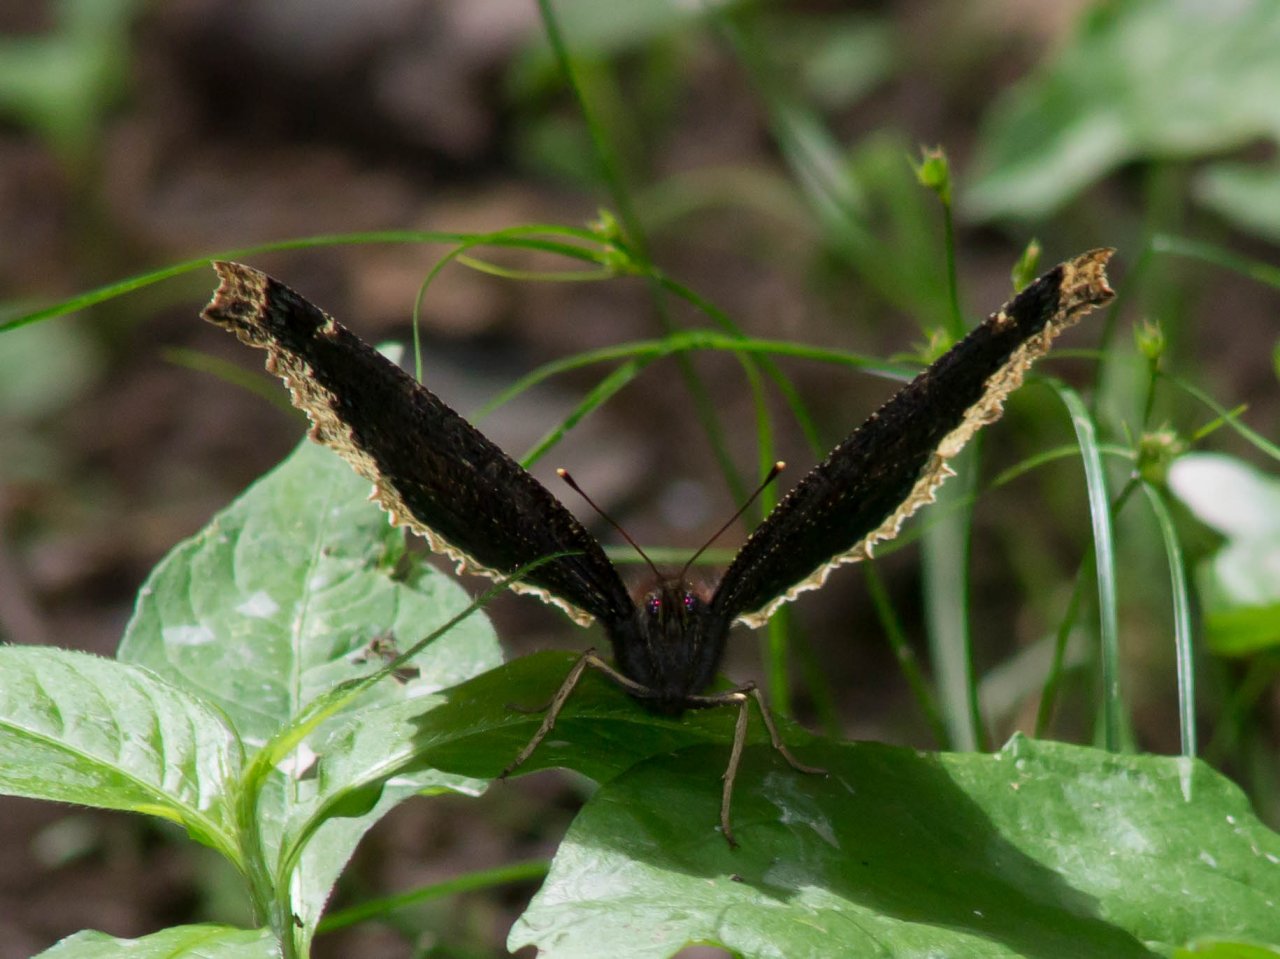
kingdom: Animalia
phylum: Arthropoda
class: Insecta
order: Lepidoptera
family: Nymphalidae
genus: Nymphalis
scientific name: Nymphalis antiopa
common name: Mourning Cloak
